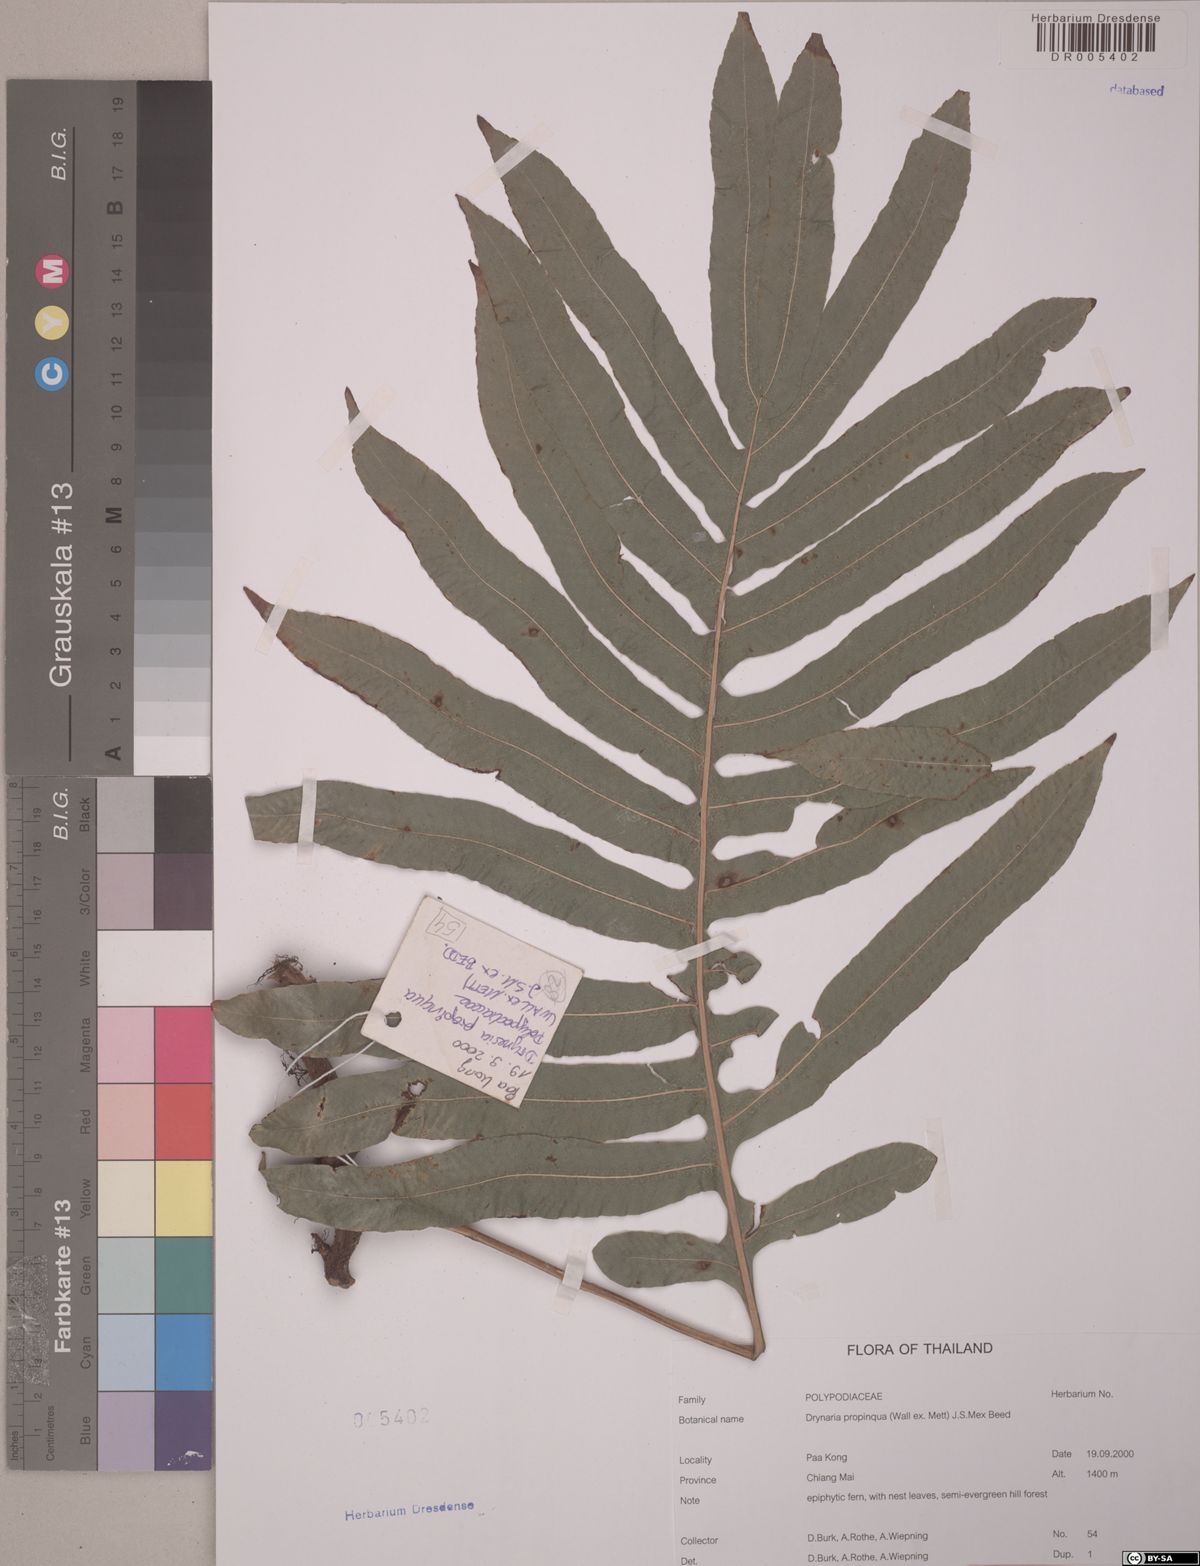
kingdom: Plantae
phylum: Tracheophyta
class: Polypodiopsida
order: Polypodiales
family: Polypodiaceae
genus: Drynaria
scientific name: Drynaria propinqua
